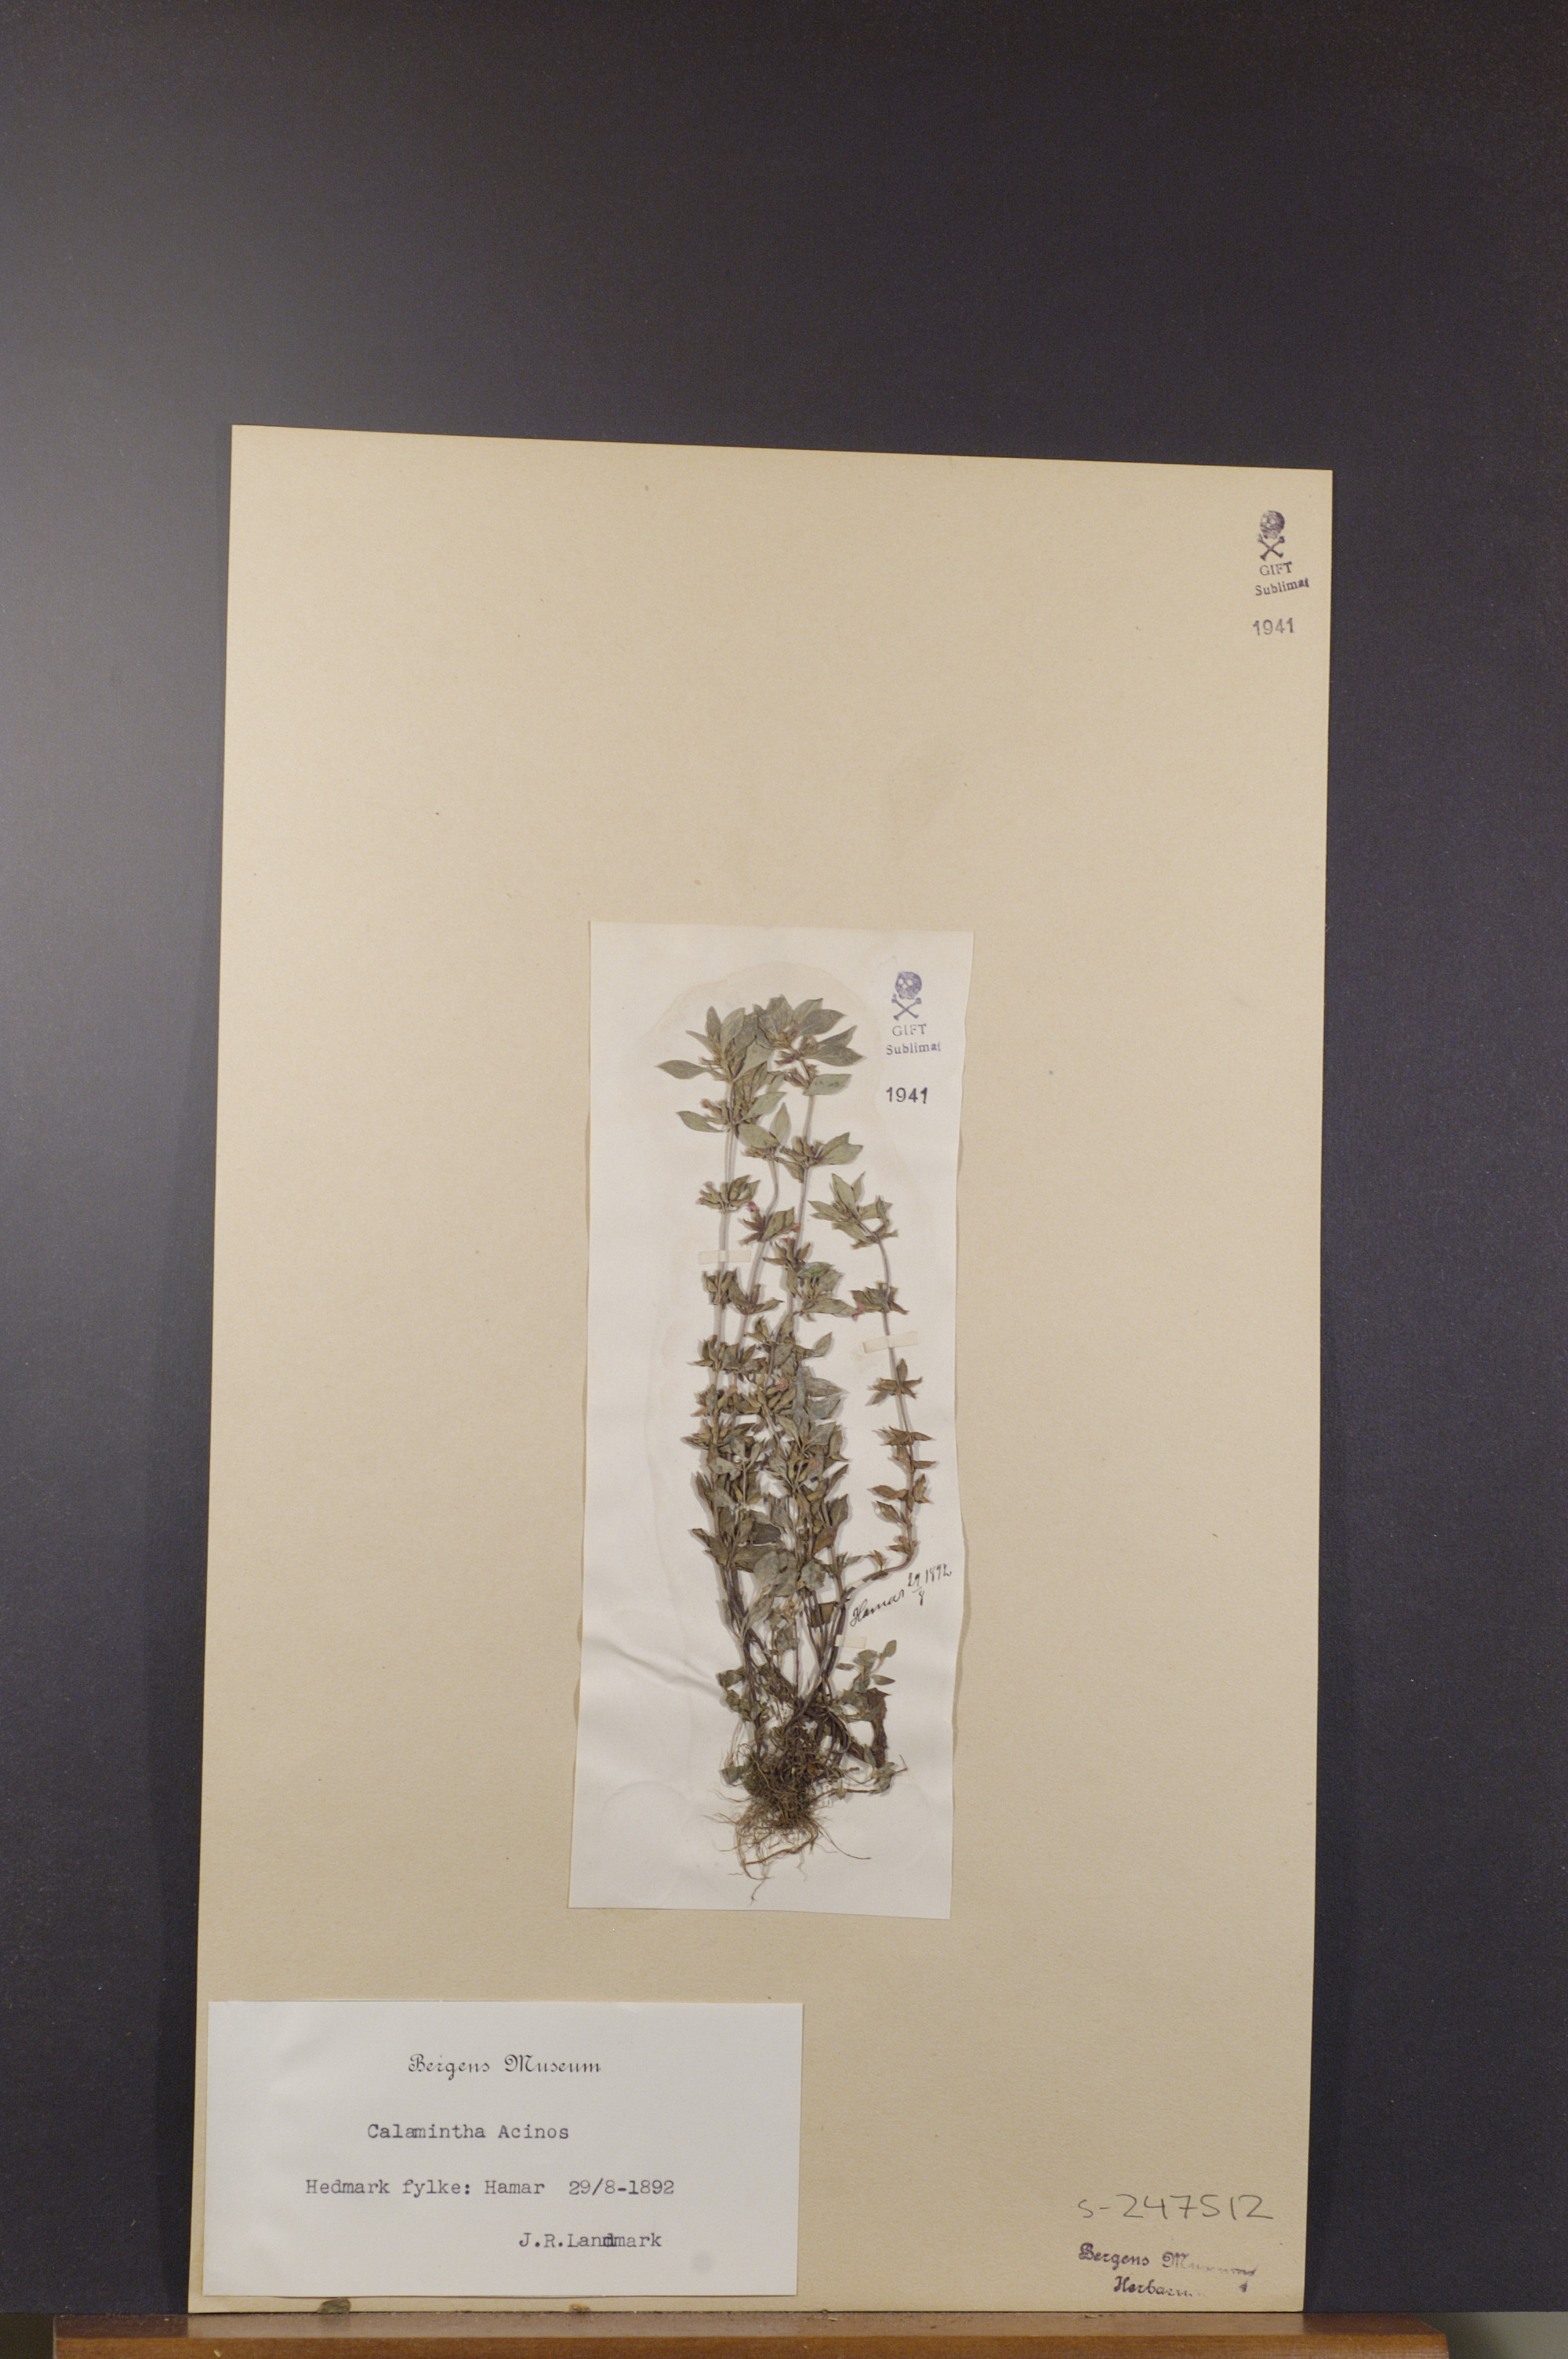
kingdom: Plantae
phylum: Tracheophyta
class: Magnoliopsida
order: Lamiales
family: Lamiaceae
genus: Clinopodium
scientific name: Clinopodium acinos
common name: Basil thyme
